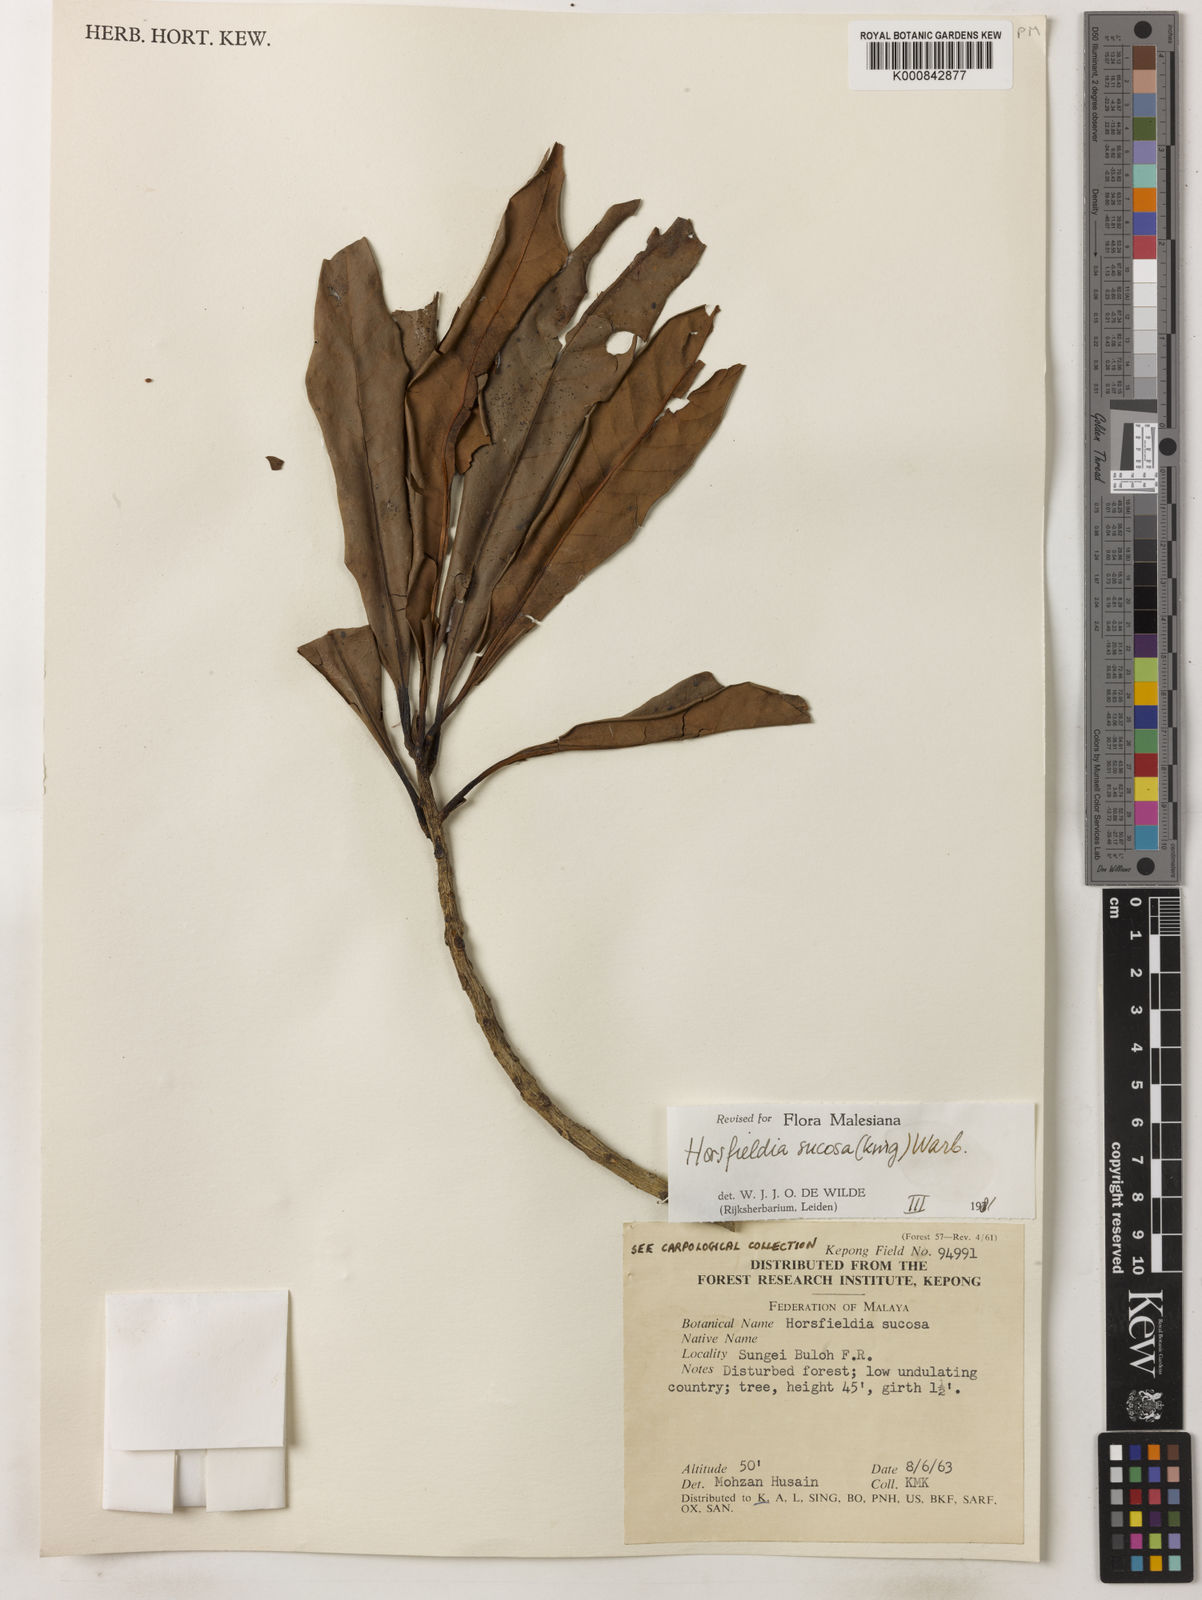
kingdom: Plantae
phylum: Tracheophyta
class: Magnoliopsida
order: Magnoliales
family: Myristicaceae
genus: Horsfieldia
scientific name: Horsfieldia sucosa
